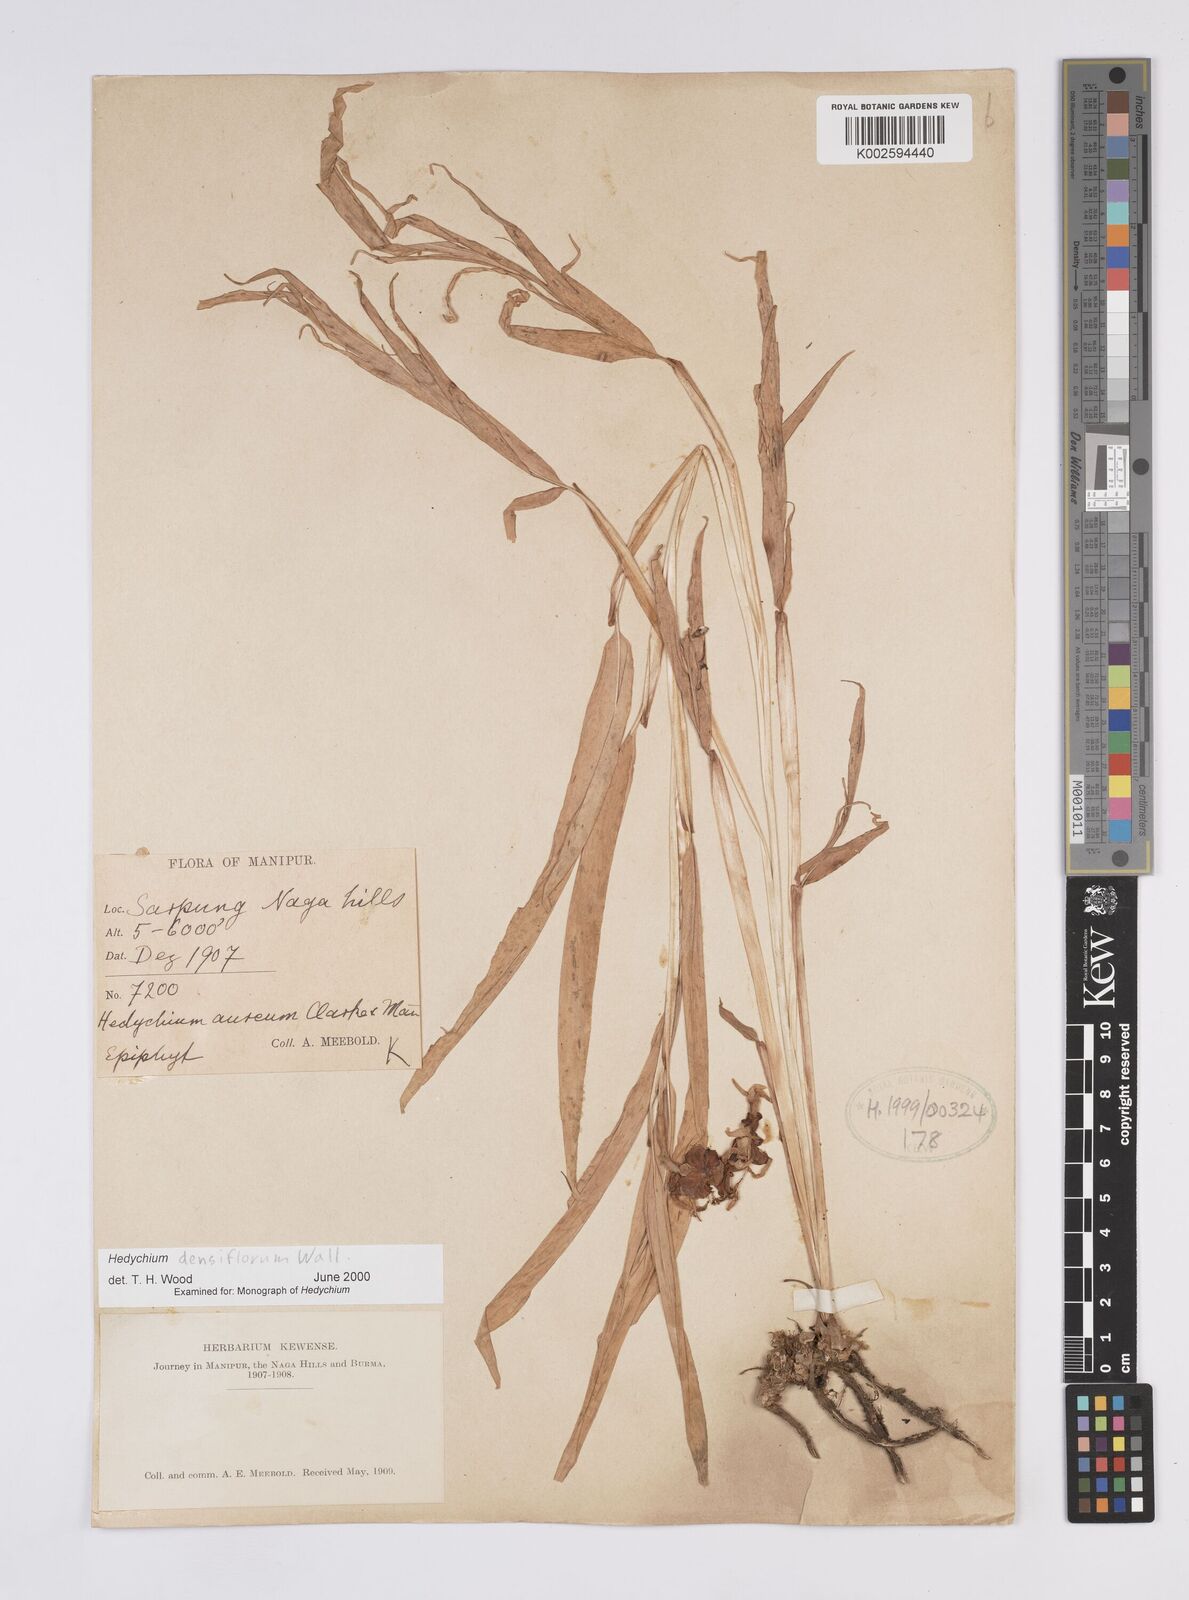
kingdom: Plantae
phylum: Tracheophyta
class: Liliopsida
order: Zingiberales
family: Zingiberaceae
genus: Hedychium
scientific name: Hedychium densiflorum
